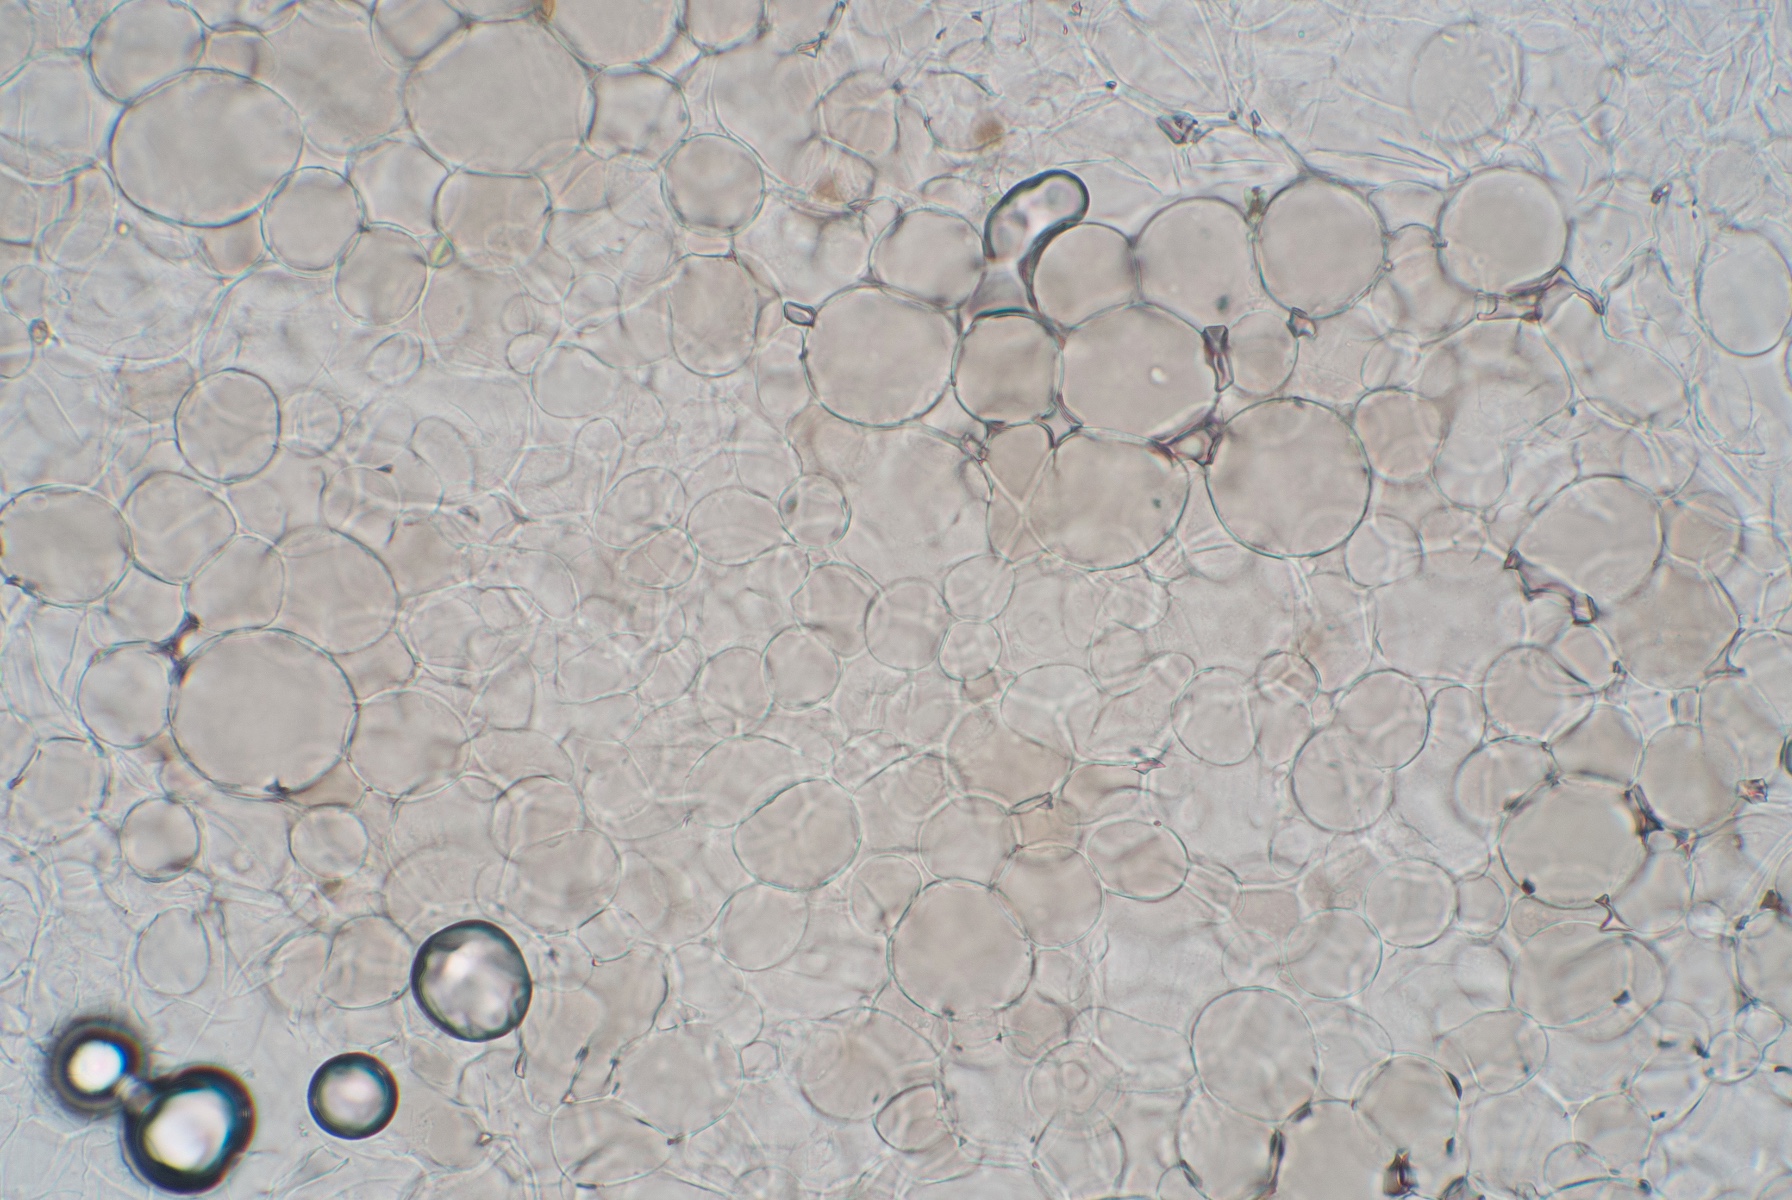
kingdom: Fungi
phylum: Basidiomycota
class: Agaricomycetes
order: Agaricales
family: Pluteaceae
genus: Pluteus
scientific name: Pluteus cinereofuscus
